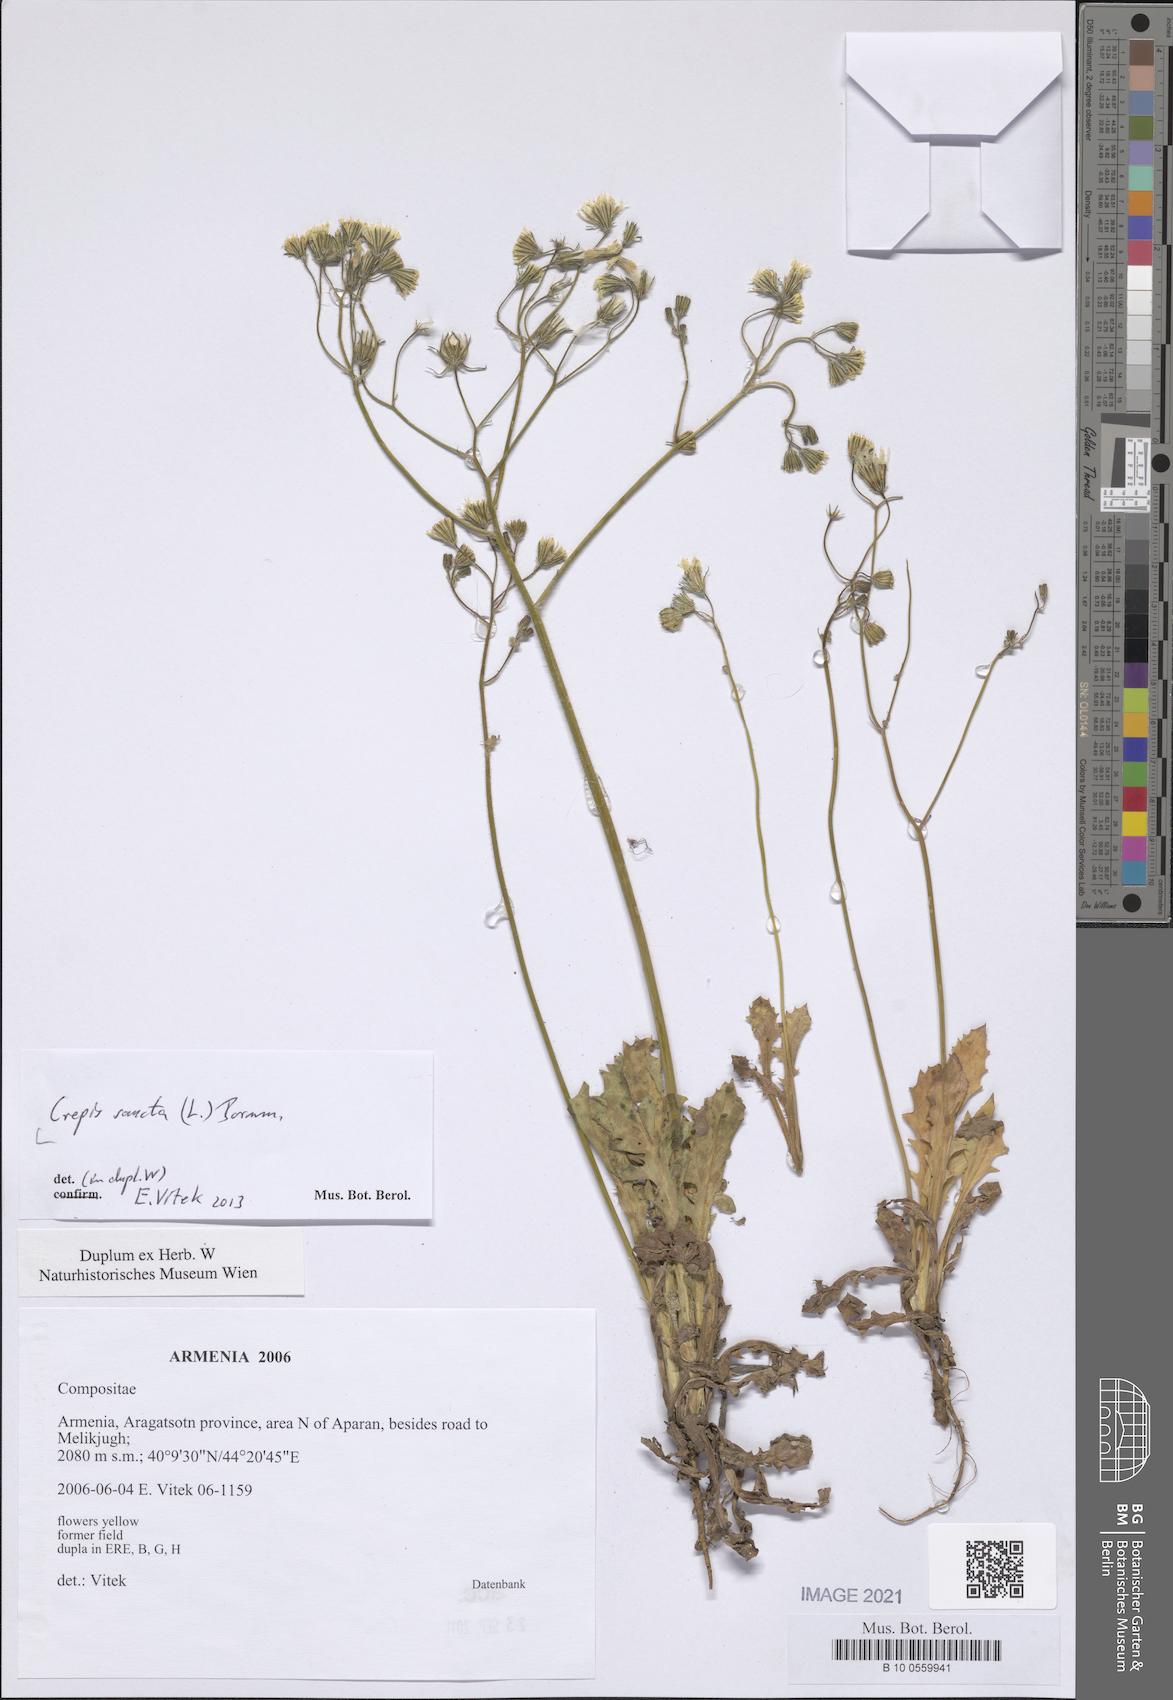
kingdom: Plantae
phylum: Tracheophyta
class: Magnoliopsida
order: Asterales
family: Asteraceae
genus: Crepis
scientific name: Crepis sancta
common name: Hawk's-beard
